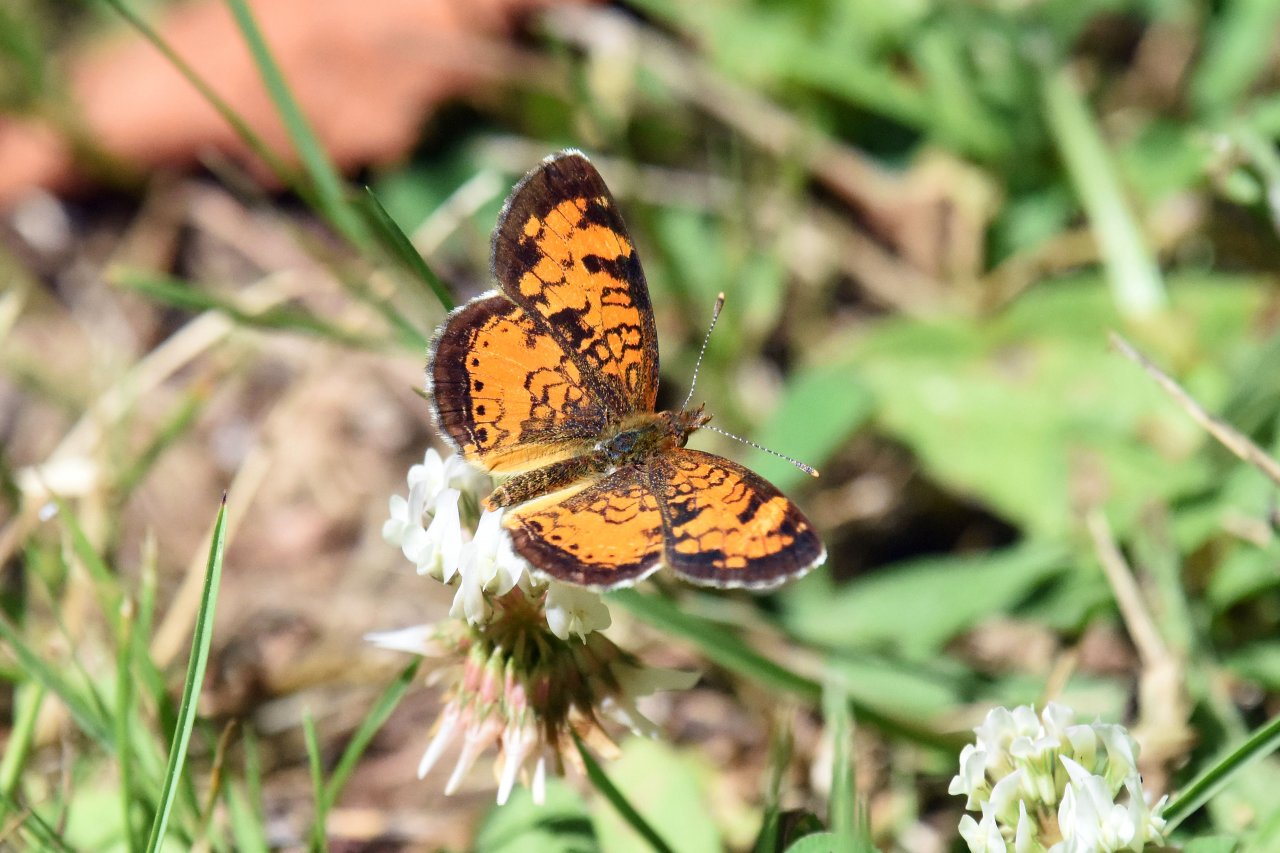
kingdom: Animalia
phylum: Arthropoda
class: Insecta
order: Lepidoptera
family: Nymphalidae
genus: Phyciodes
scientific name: Phyciodes tharos
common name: Northern Crescent
